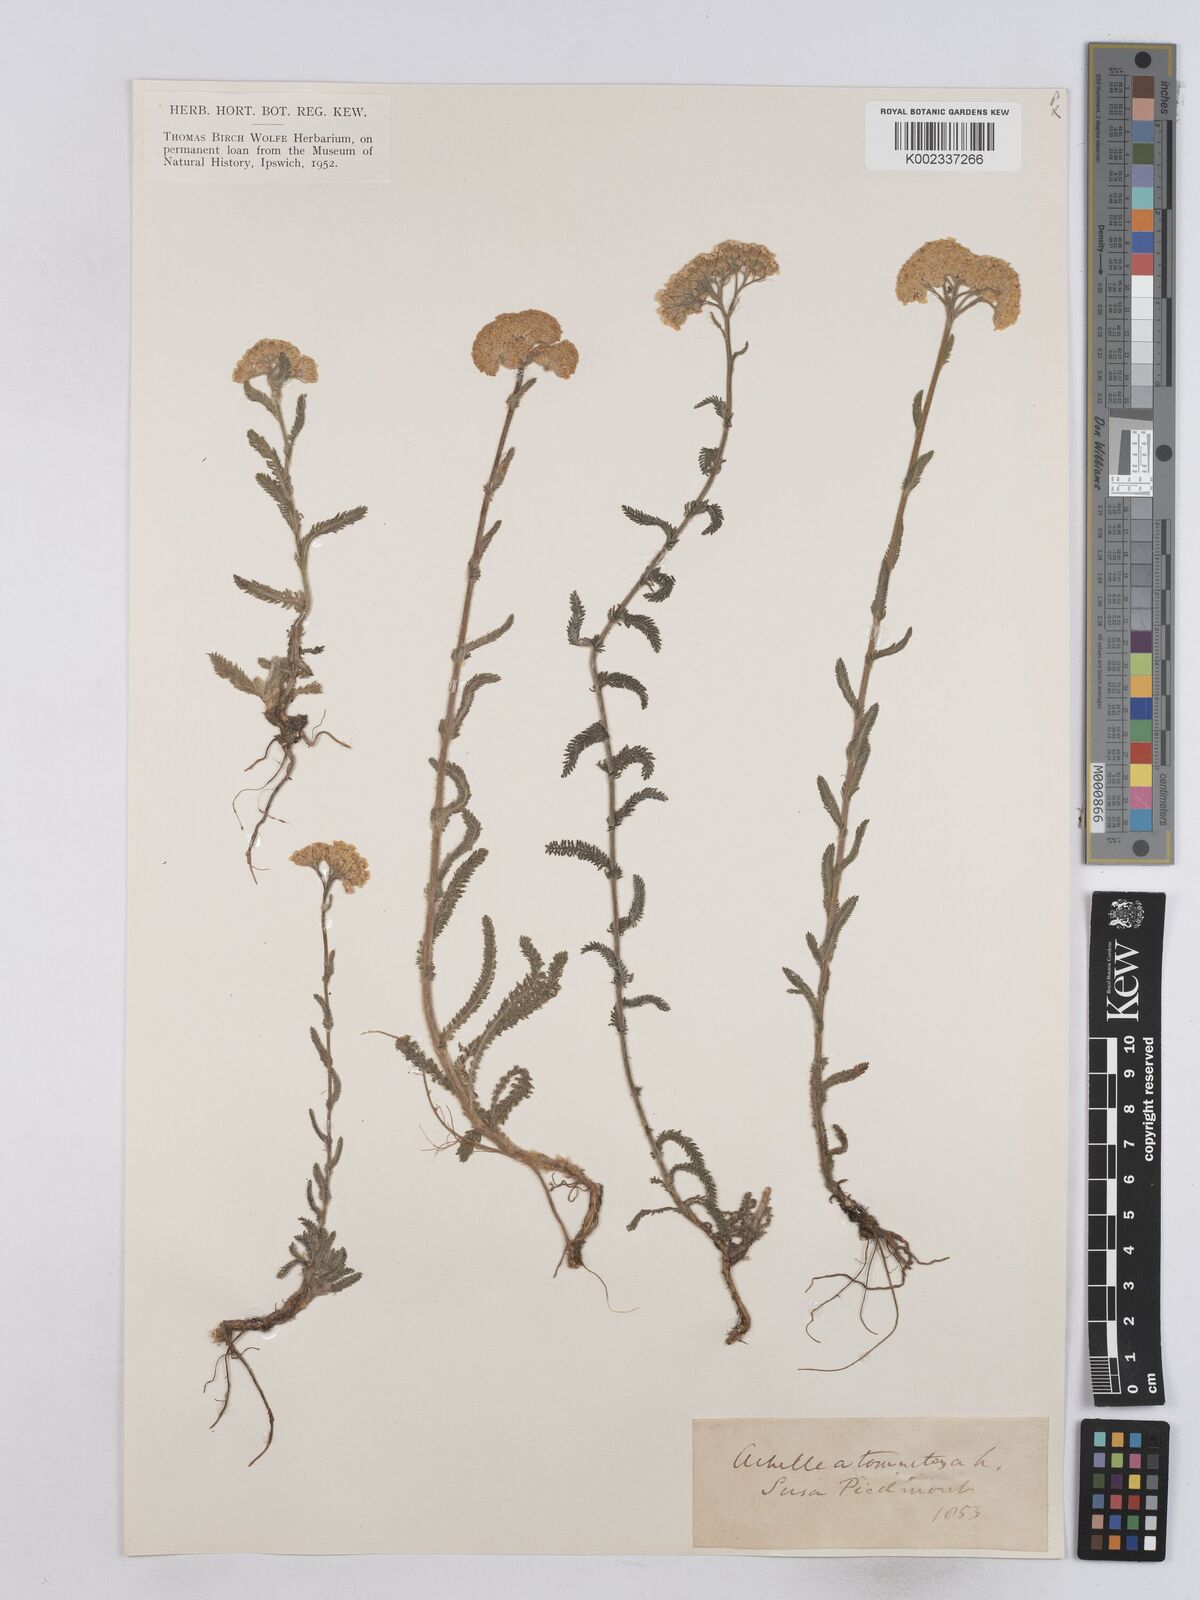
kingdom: Plantae
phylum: Tracheophyta
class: Magnoliopsida
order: Asterales
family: Asteraceae
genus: Achillea
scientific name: Achillea tomentosa
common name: Yellow milfoil
